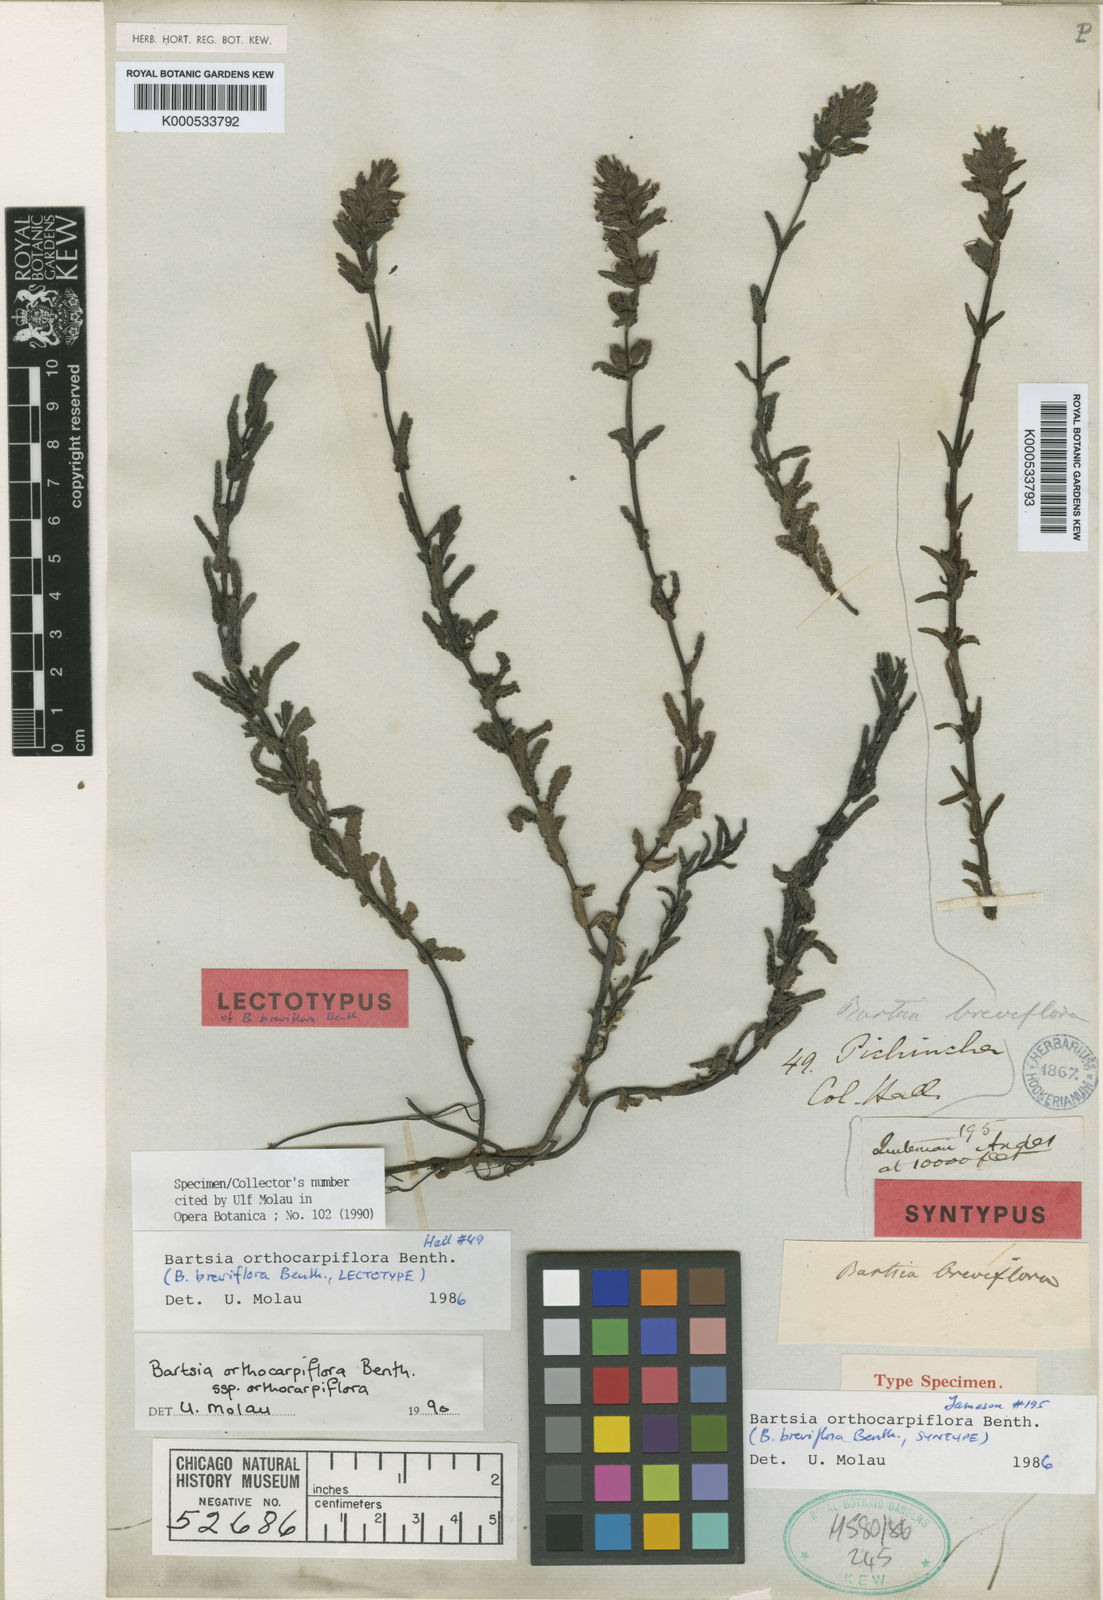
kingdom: Plantae
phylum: Tracheophyta
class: Magnoliopsida
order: Lamiales
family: Orobanchaceae
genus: Neobartsia
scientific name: Neobartsia orthocarpiflora
